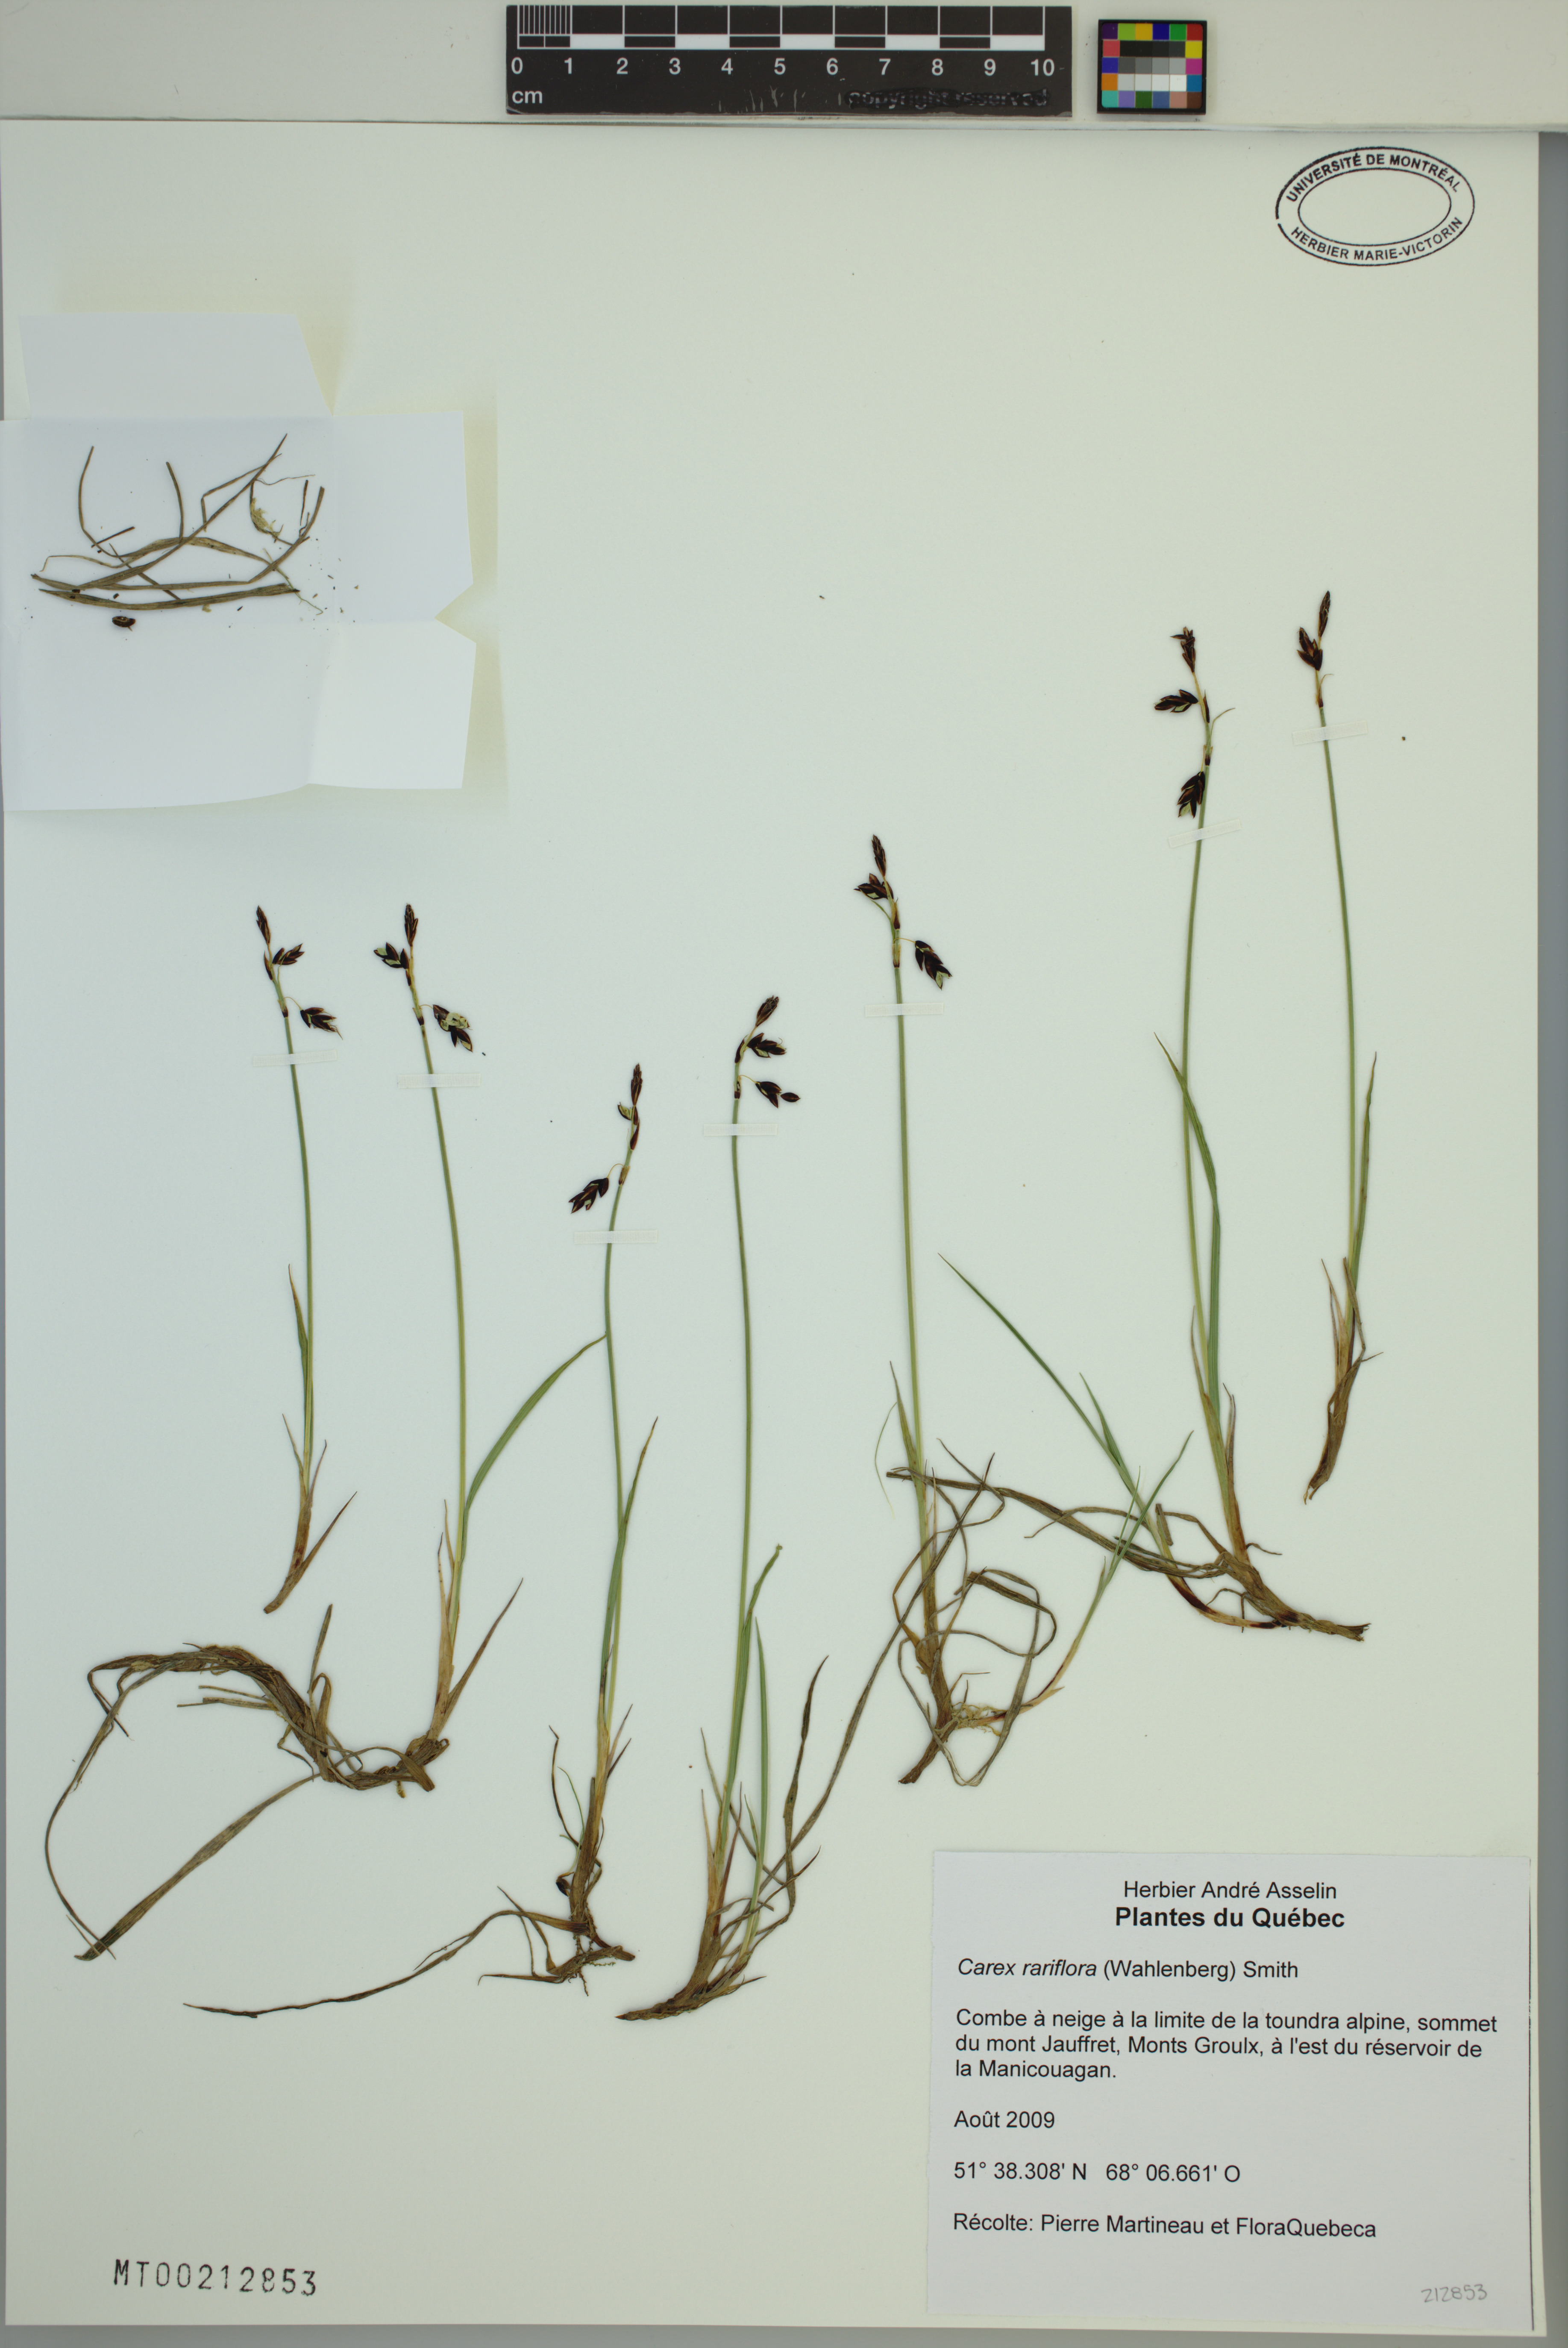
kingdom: Plantae
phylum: Tracheophyta
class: Liliopsida
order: Poales
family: Cyperaceae
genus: Carex
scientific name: Carex rariflora
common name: Loose-flowered alpine sedge
